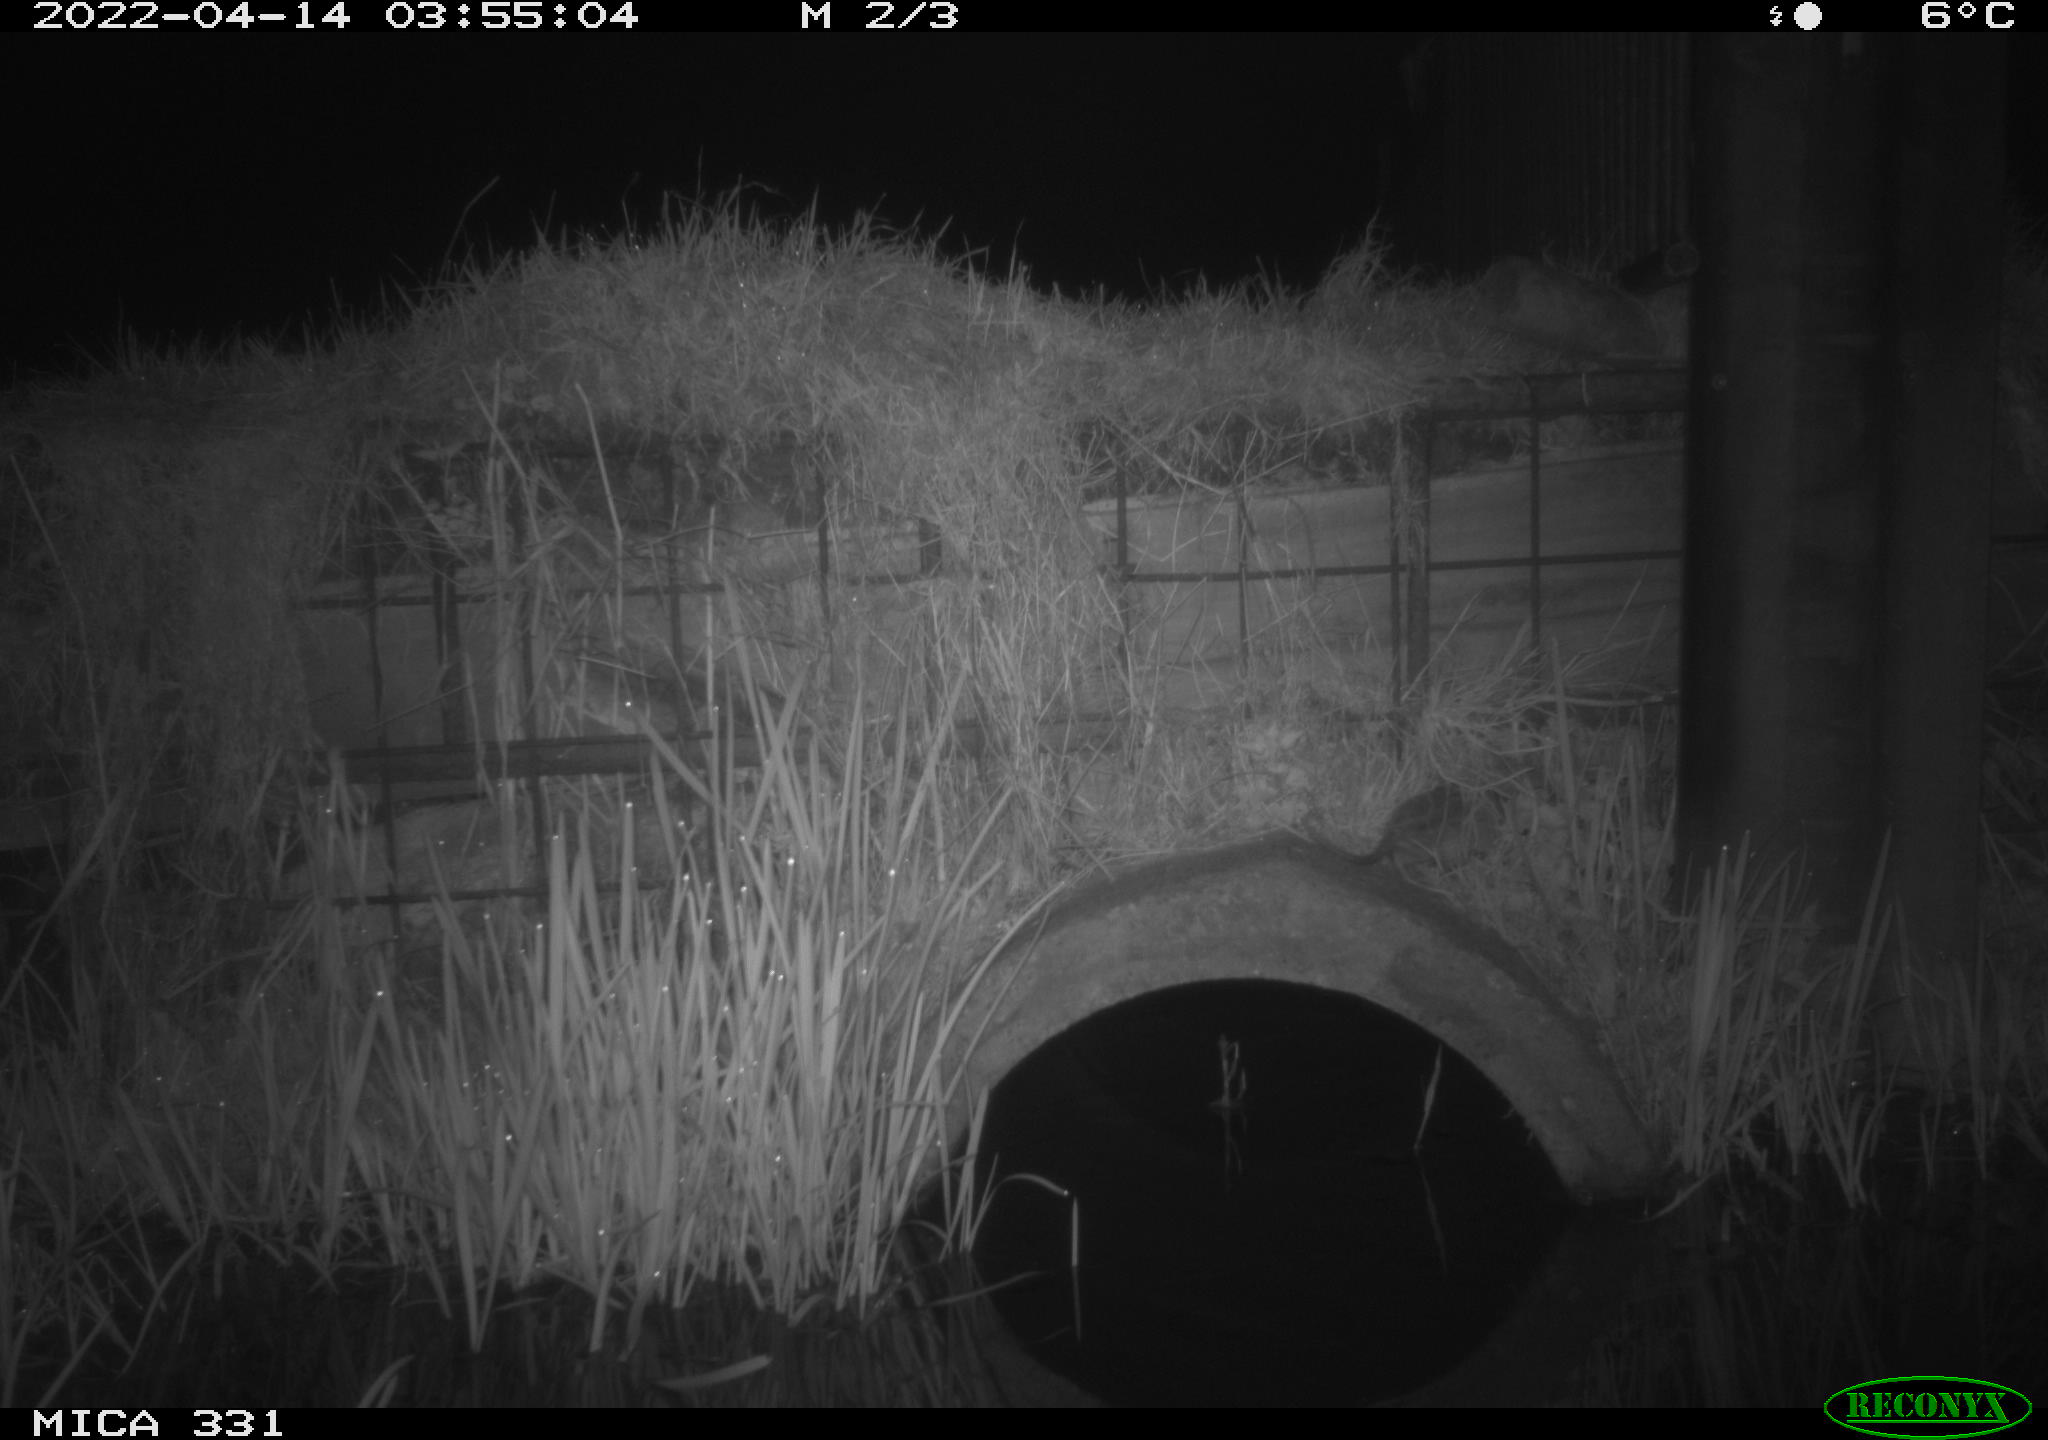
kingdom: Animalia
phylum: Chordata
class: Mammalia
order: Rodentia
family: Muridae
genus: Rattus
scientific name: Rattus norvegicus
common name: Brown rat
